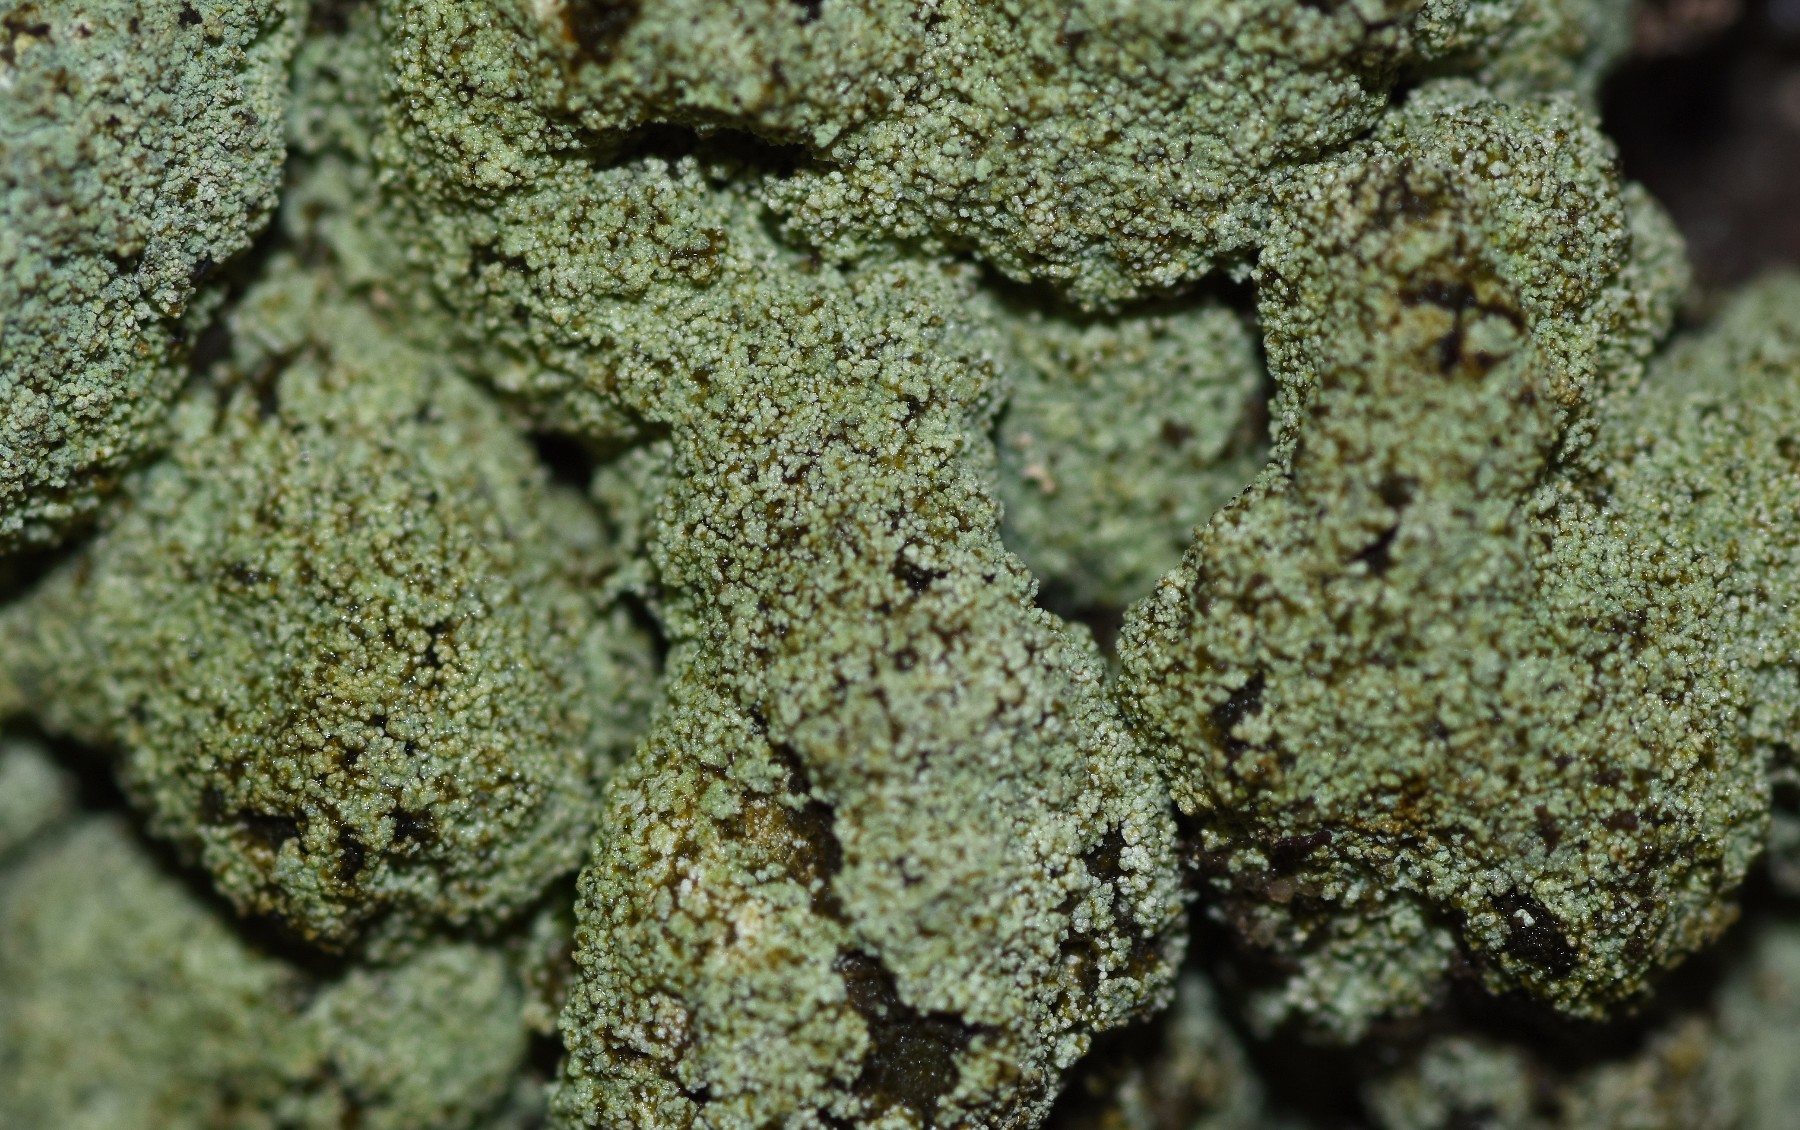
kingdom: Fungi
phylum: Ascomycota
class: Lecanoromycetes
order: Lecanorales
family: Stereocaulaceae
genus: Lepraria
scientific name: Lepraria elobata
